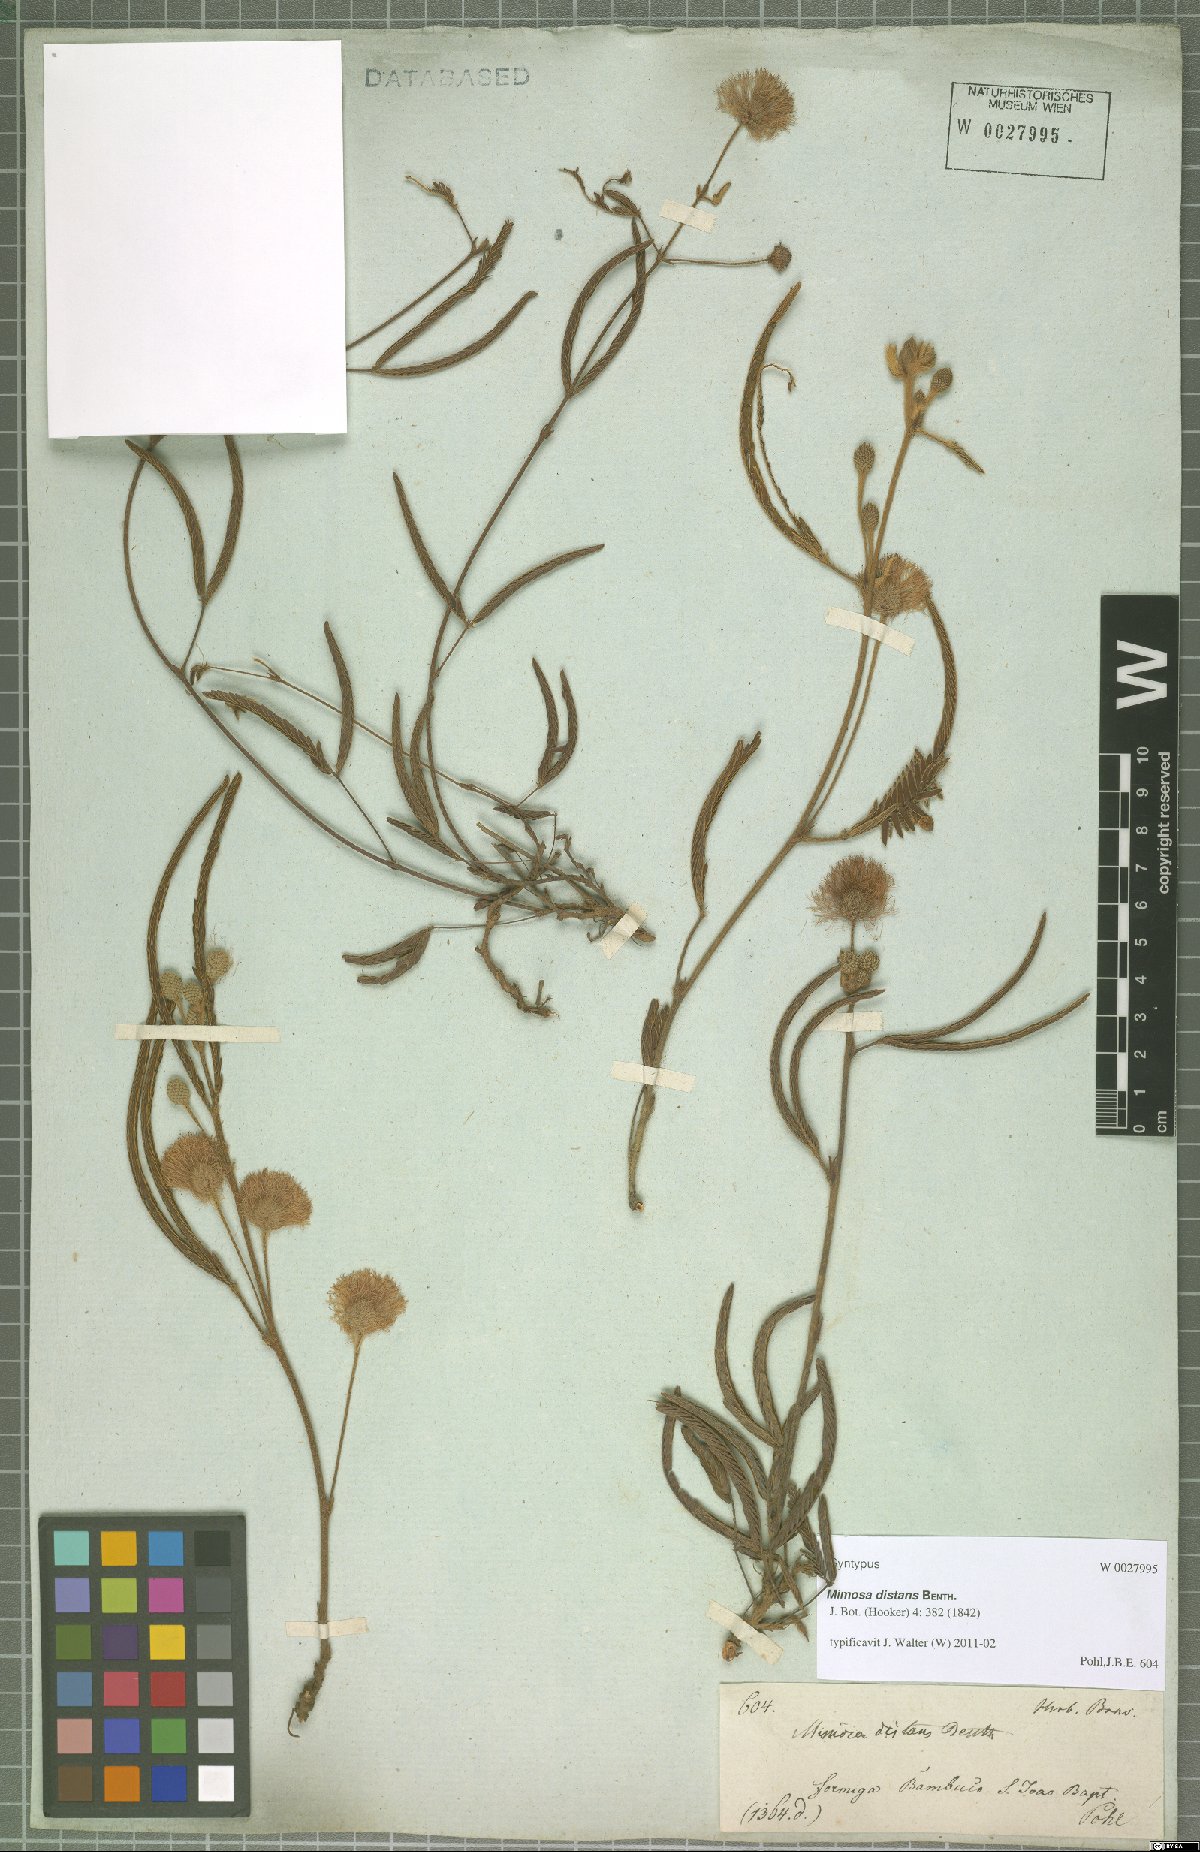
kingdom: Plantae
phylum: Tracheophyta
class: Magnoliopsida
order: Fabales
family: Fabaceae
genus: Mimosa
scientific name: Mimosa distans
